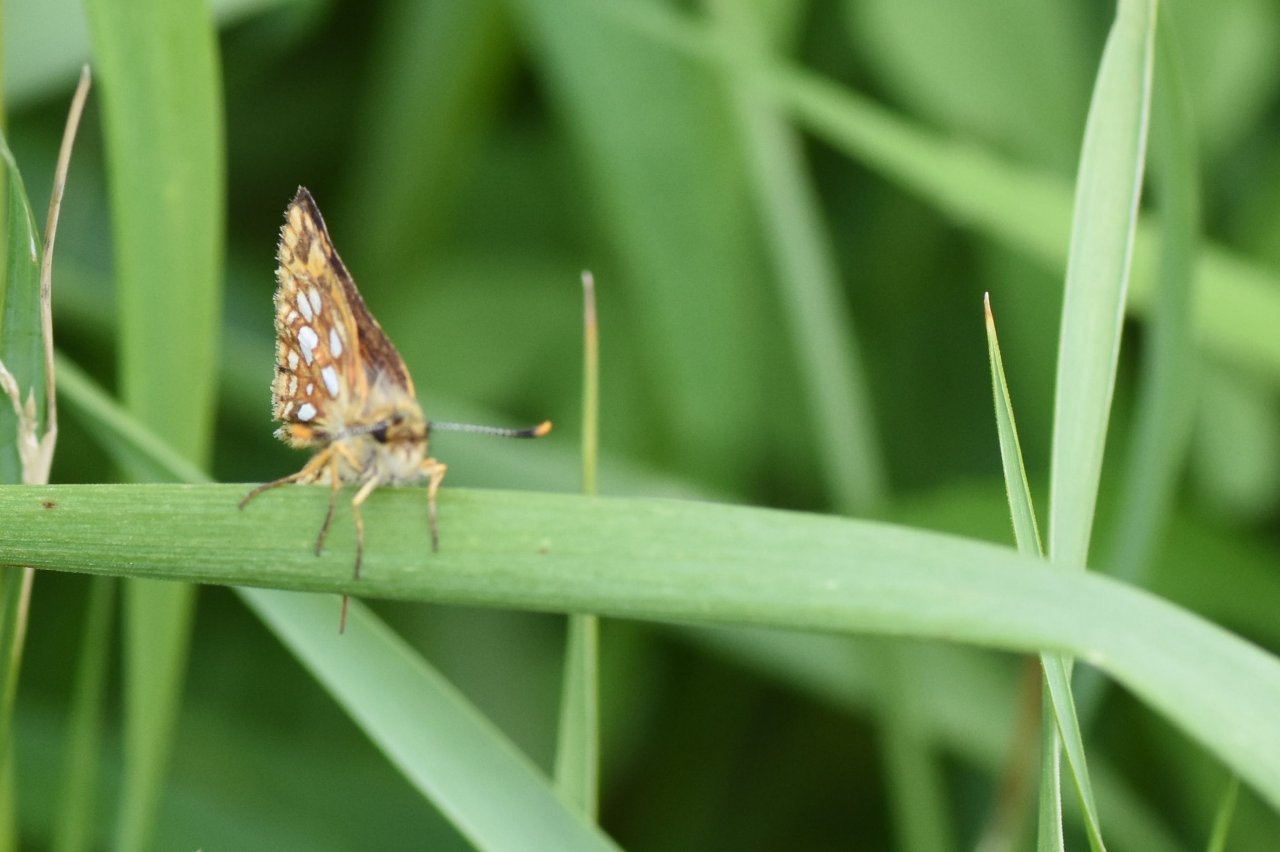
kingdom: Animalia
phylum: Arthropoda
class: Insecta
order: Lepidoptera
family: Hesperiidae
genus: Carterocephalus
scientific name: Carterocephalus palaemon
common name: Chequered Skipper
